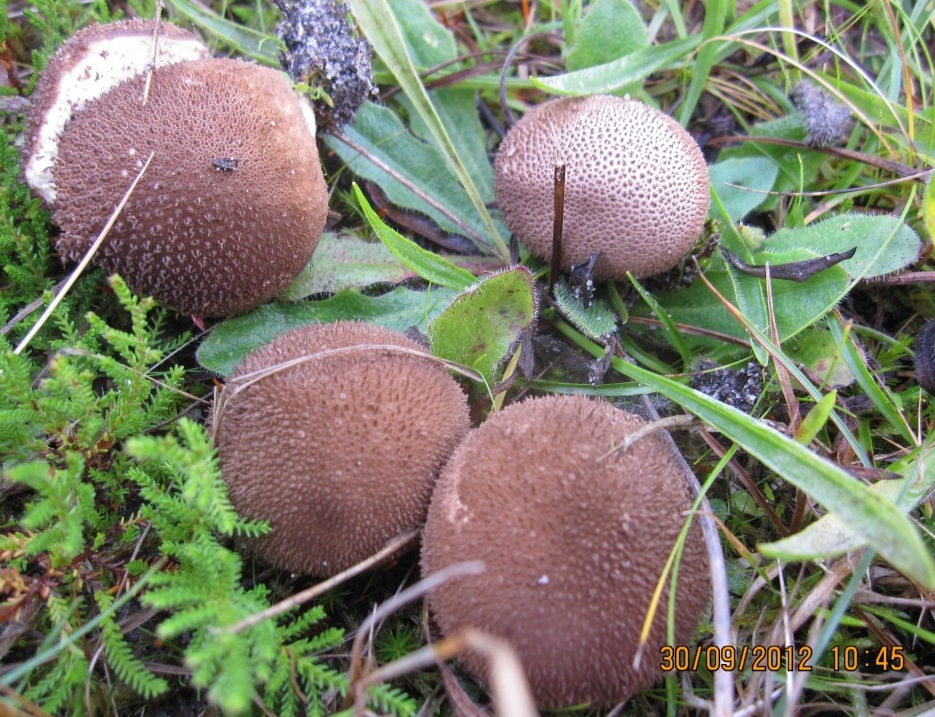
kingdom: Fungi
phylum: Basidiomycota
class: Agaricomycetes
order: Agaricales
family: Lycoperdaceae
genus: Lycoperdon
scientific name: Lycoperdon nigrescens
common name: sortagtig støvbold
